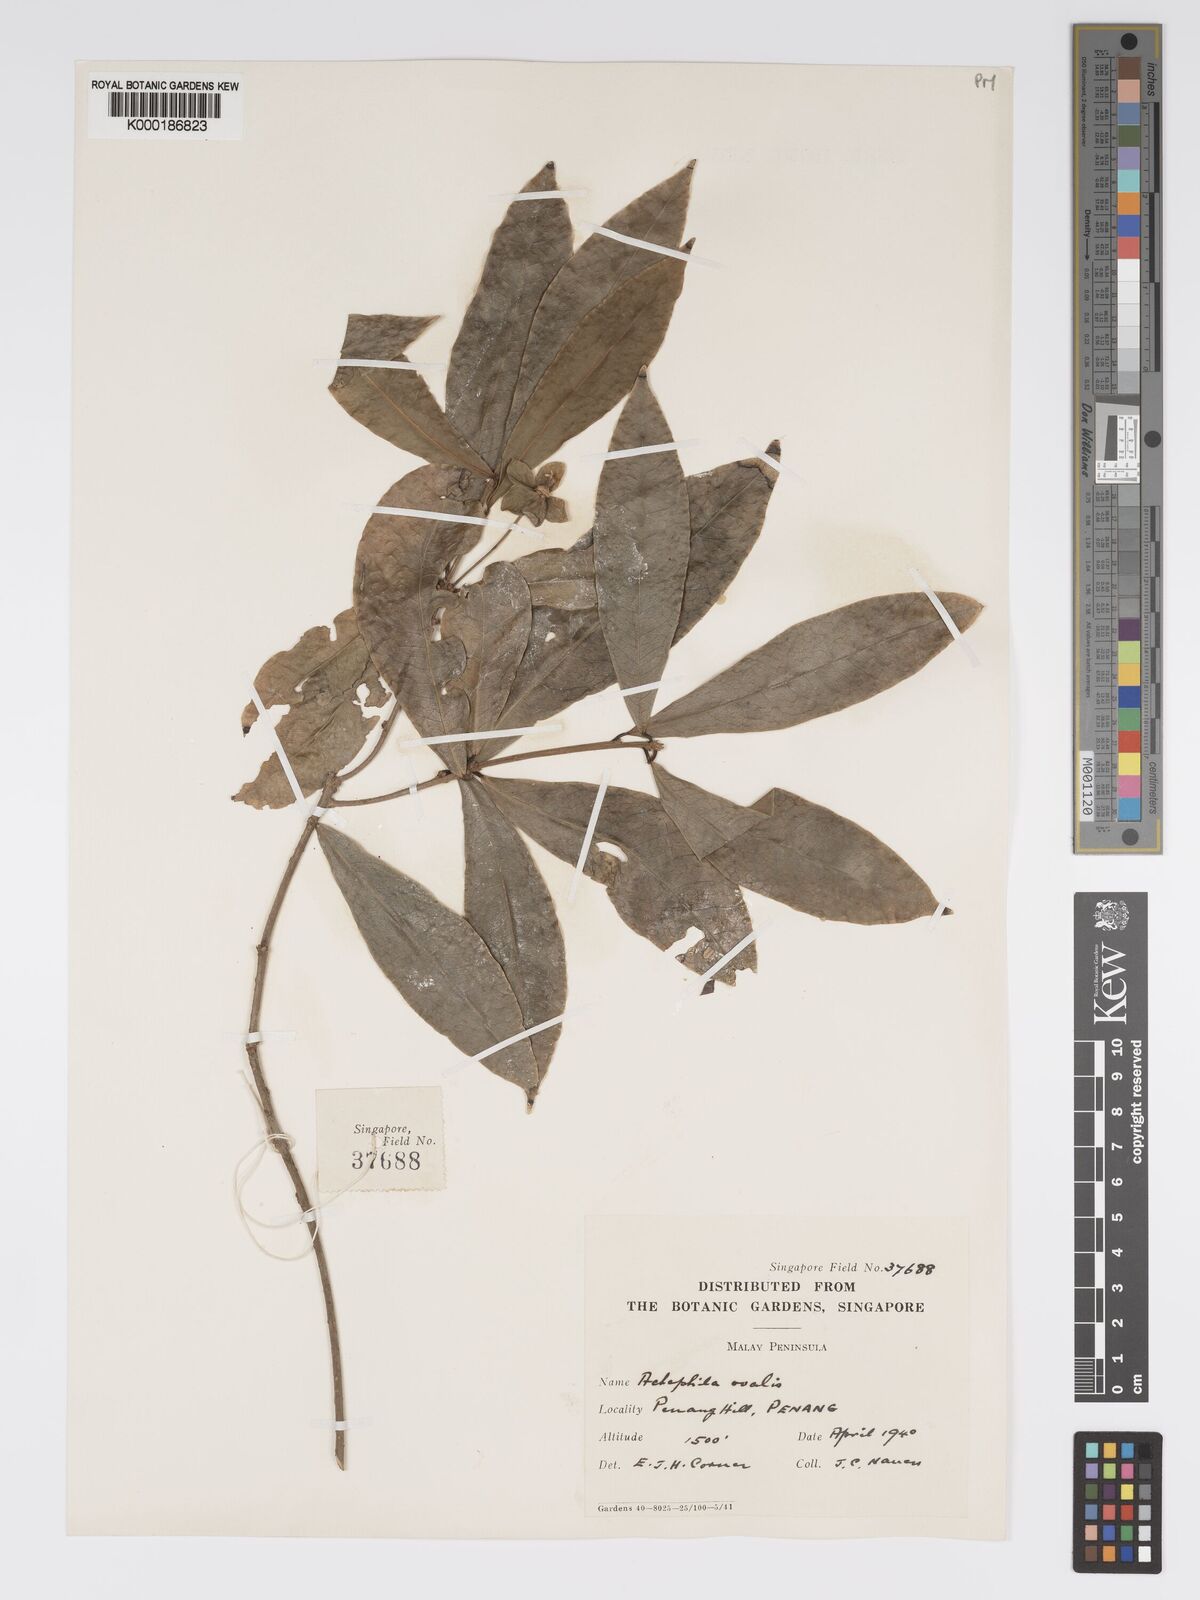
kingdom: Plantae
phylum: Tracheophyta
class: Magnoliopsida
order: Malpighiales
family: Phyllanthaceae
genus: Actephila
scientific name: Actephila ovalis
